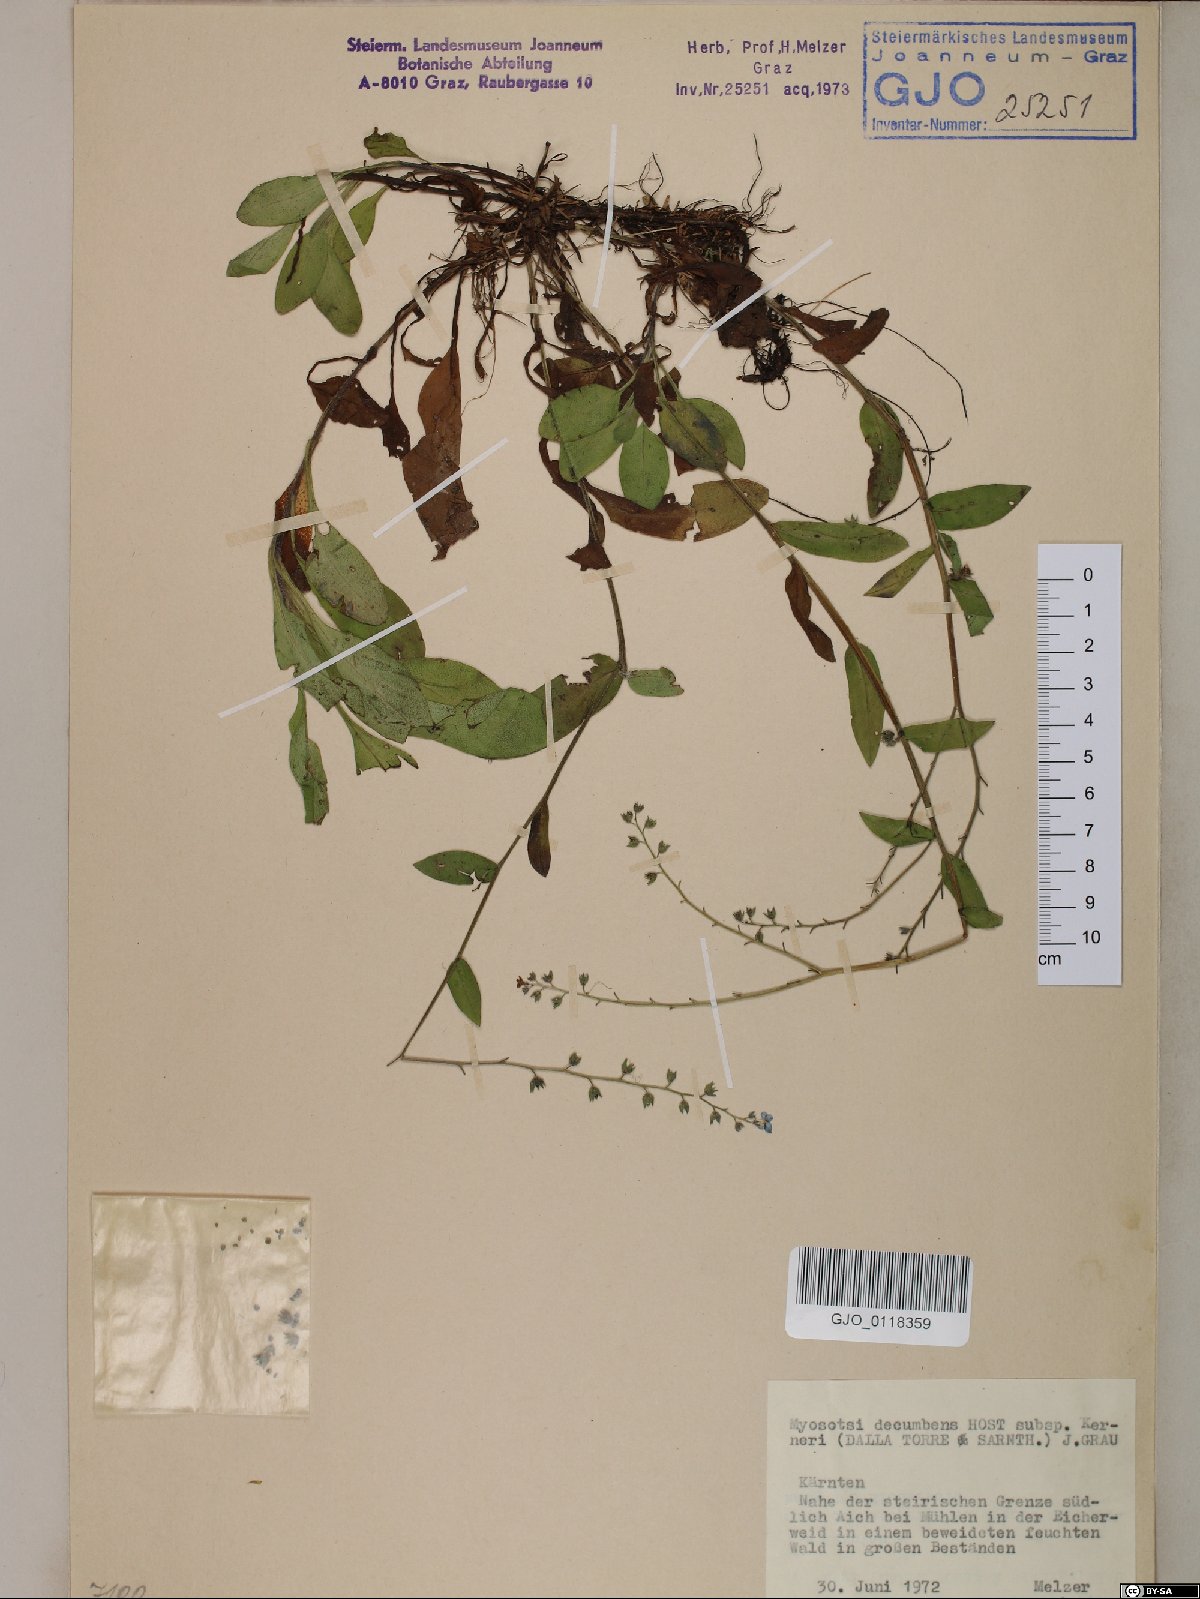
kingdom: Plantae
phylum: Tracheophyta
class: Magnoliopsida
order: Boraginales
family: Boraginaceae
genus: Myosotis
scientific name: Myosotis decumbens
